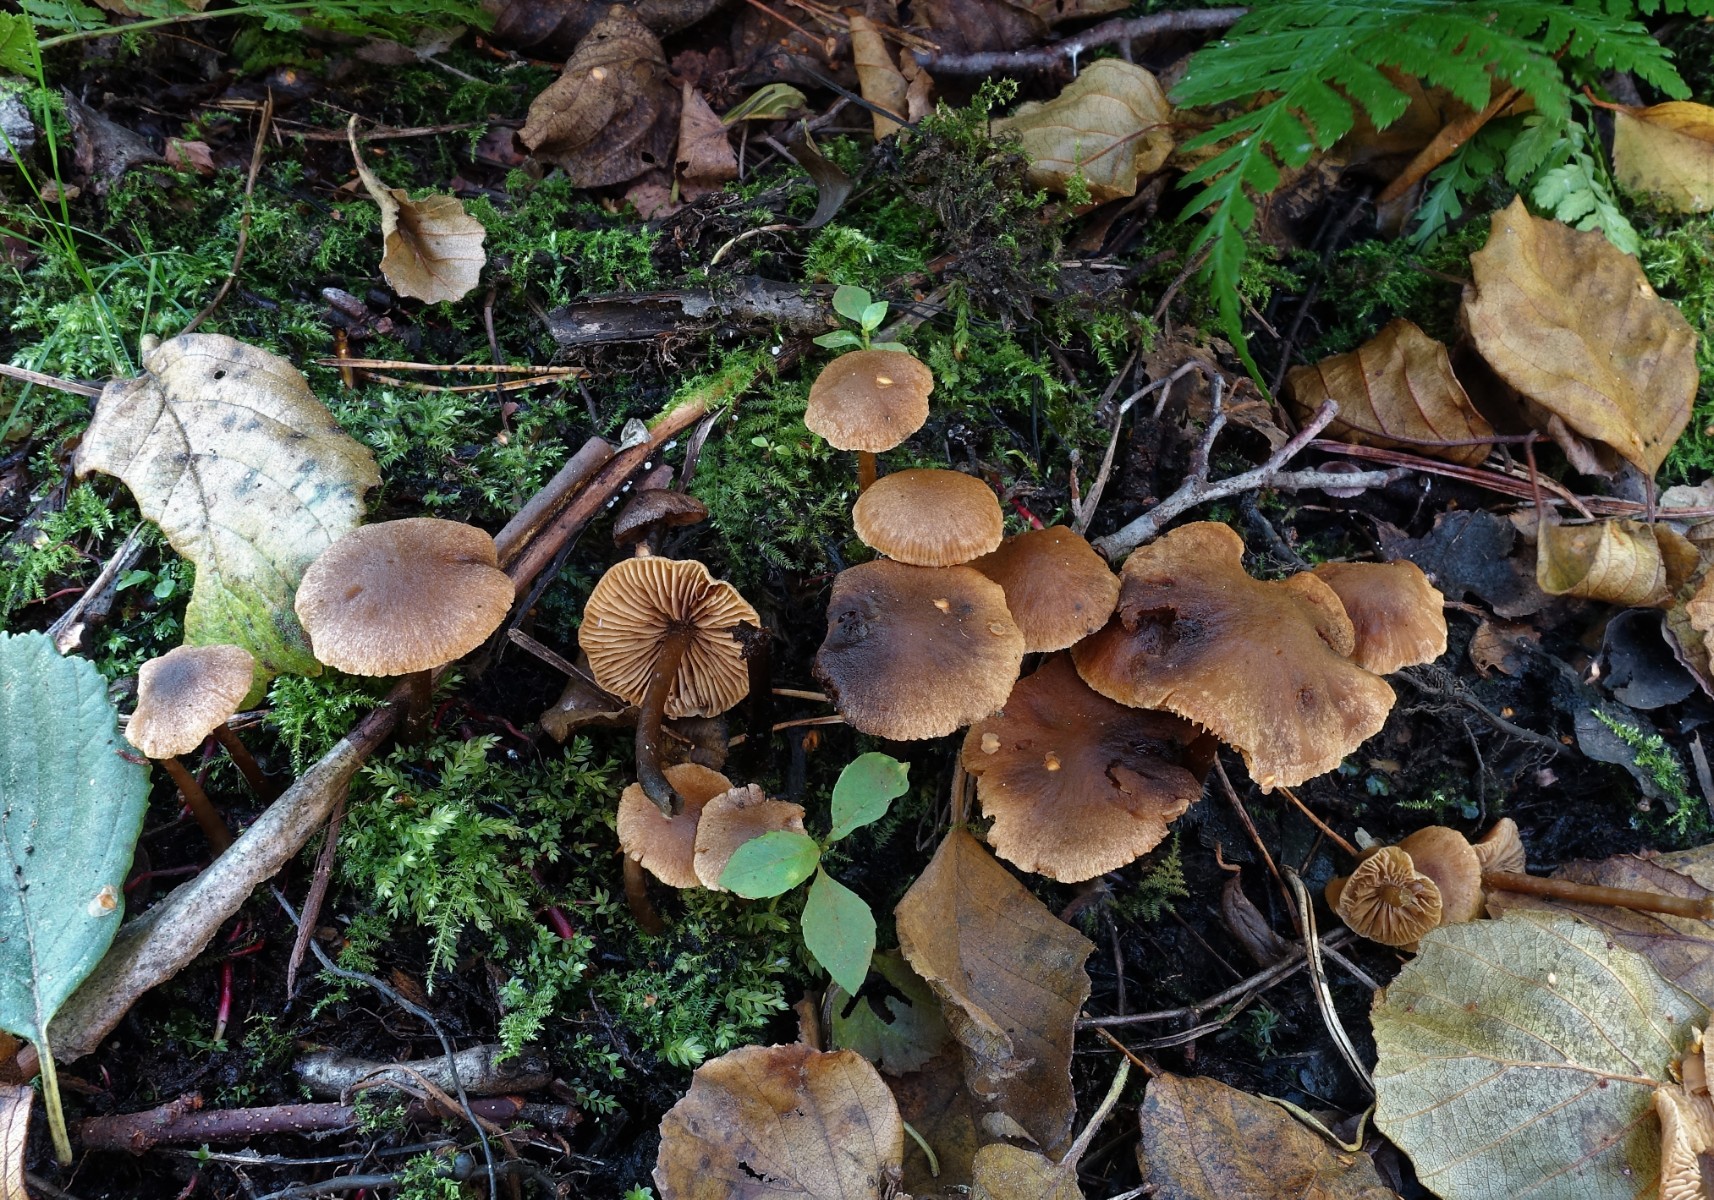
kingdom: Fungi
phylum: Basidiomycota
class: Agaricomycetes
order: Agaricales
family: Hymenogastraceae
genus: Naucoria
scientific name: Naucoria scolecina
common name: mørk elle-knaphat
